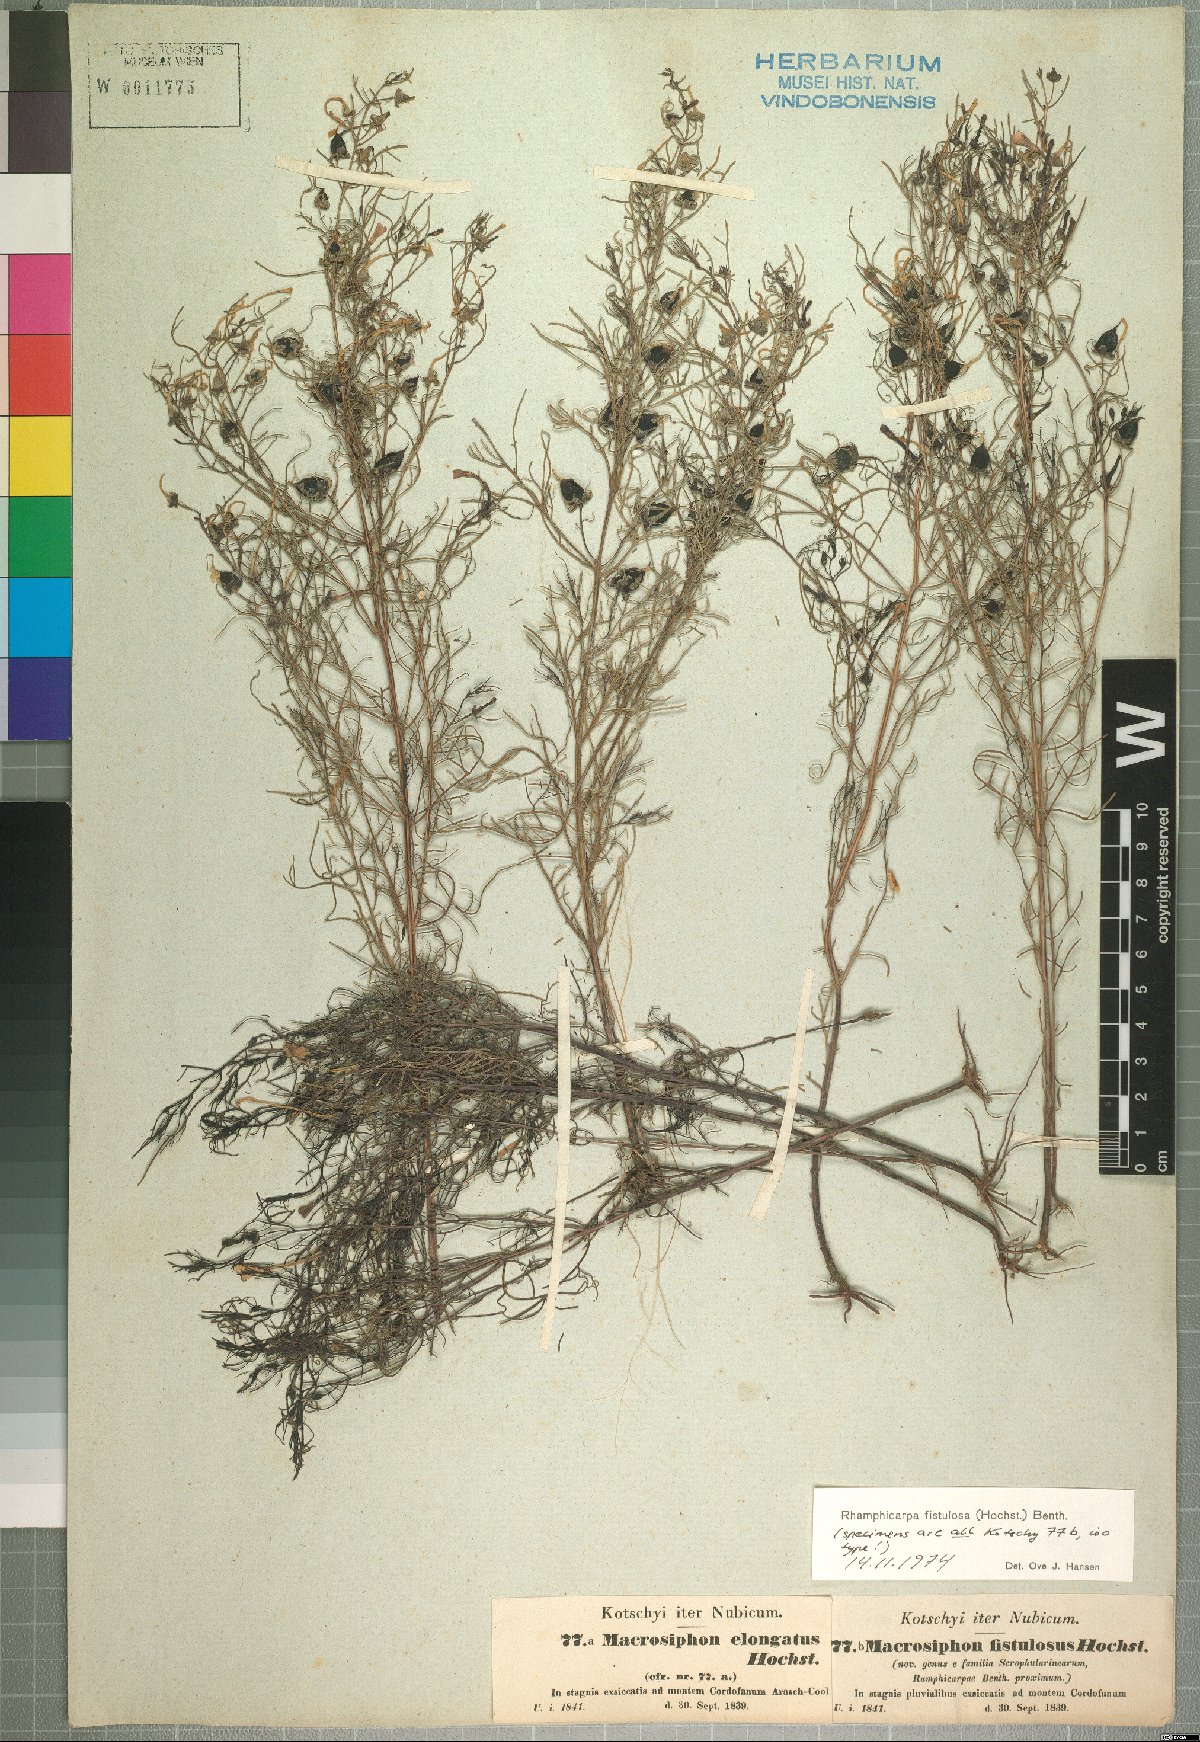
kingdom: Plantae
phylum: Tracheophyta
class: Magnoliopsida
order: Lamiales
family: Orobanchaceae
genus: Rhamphicarpa
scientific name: Rhamphicarpa fistulosa
